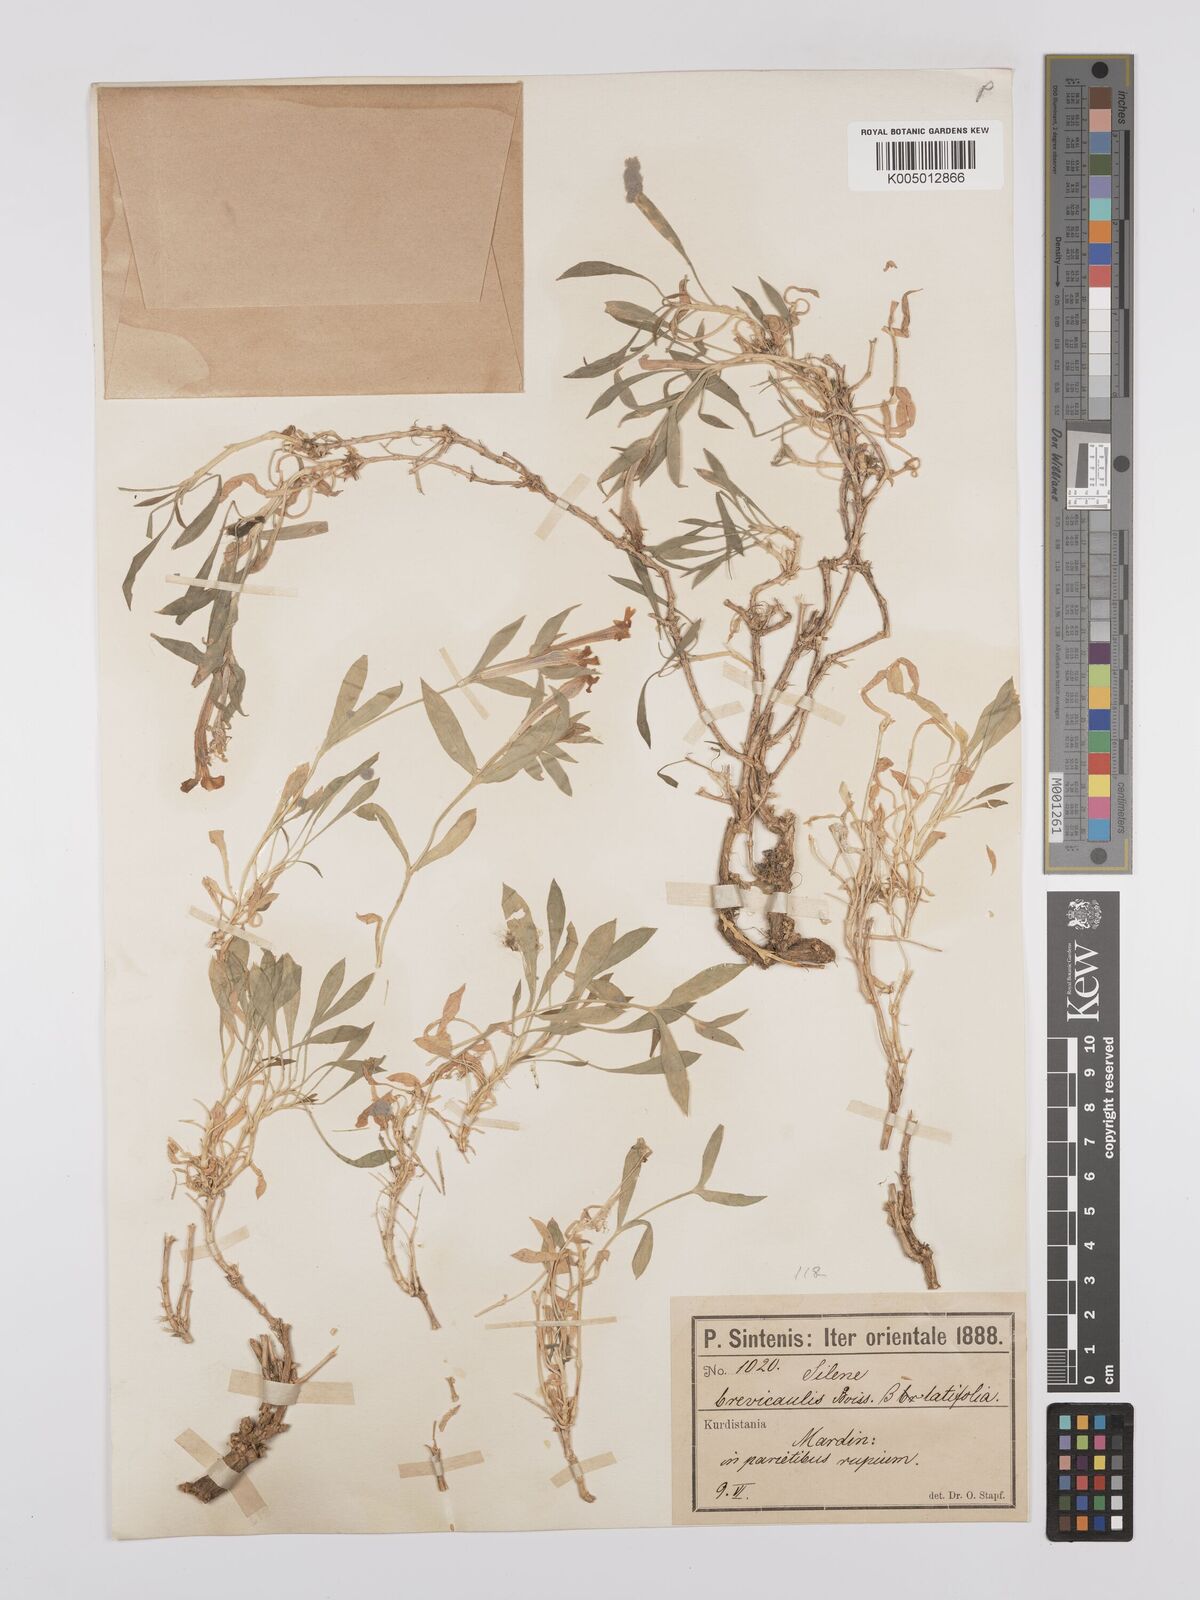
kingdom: Plantae
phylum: Tracheophyta
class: Magnoliopsida
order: Caryophyllales
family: Caryophyllaceae
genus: Silene
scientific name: Silene brevicaulis
